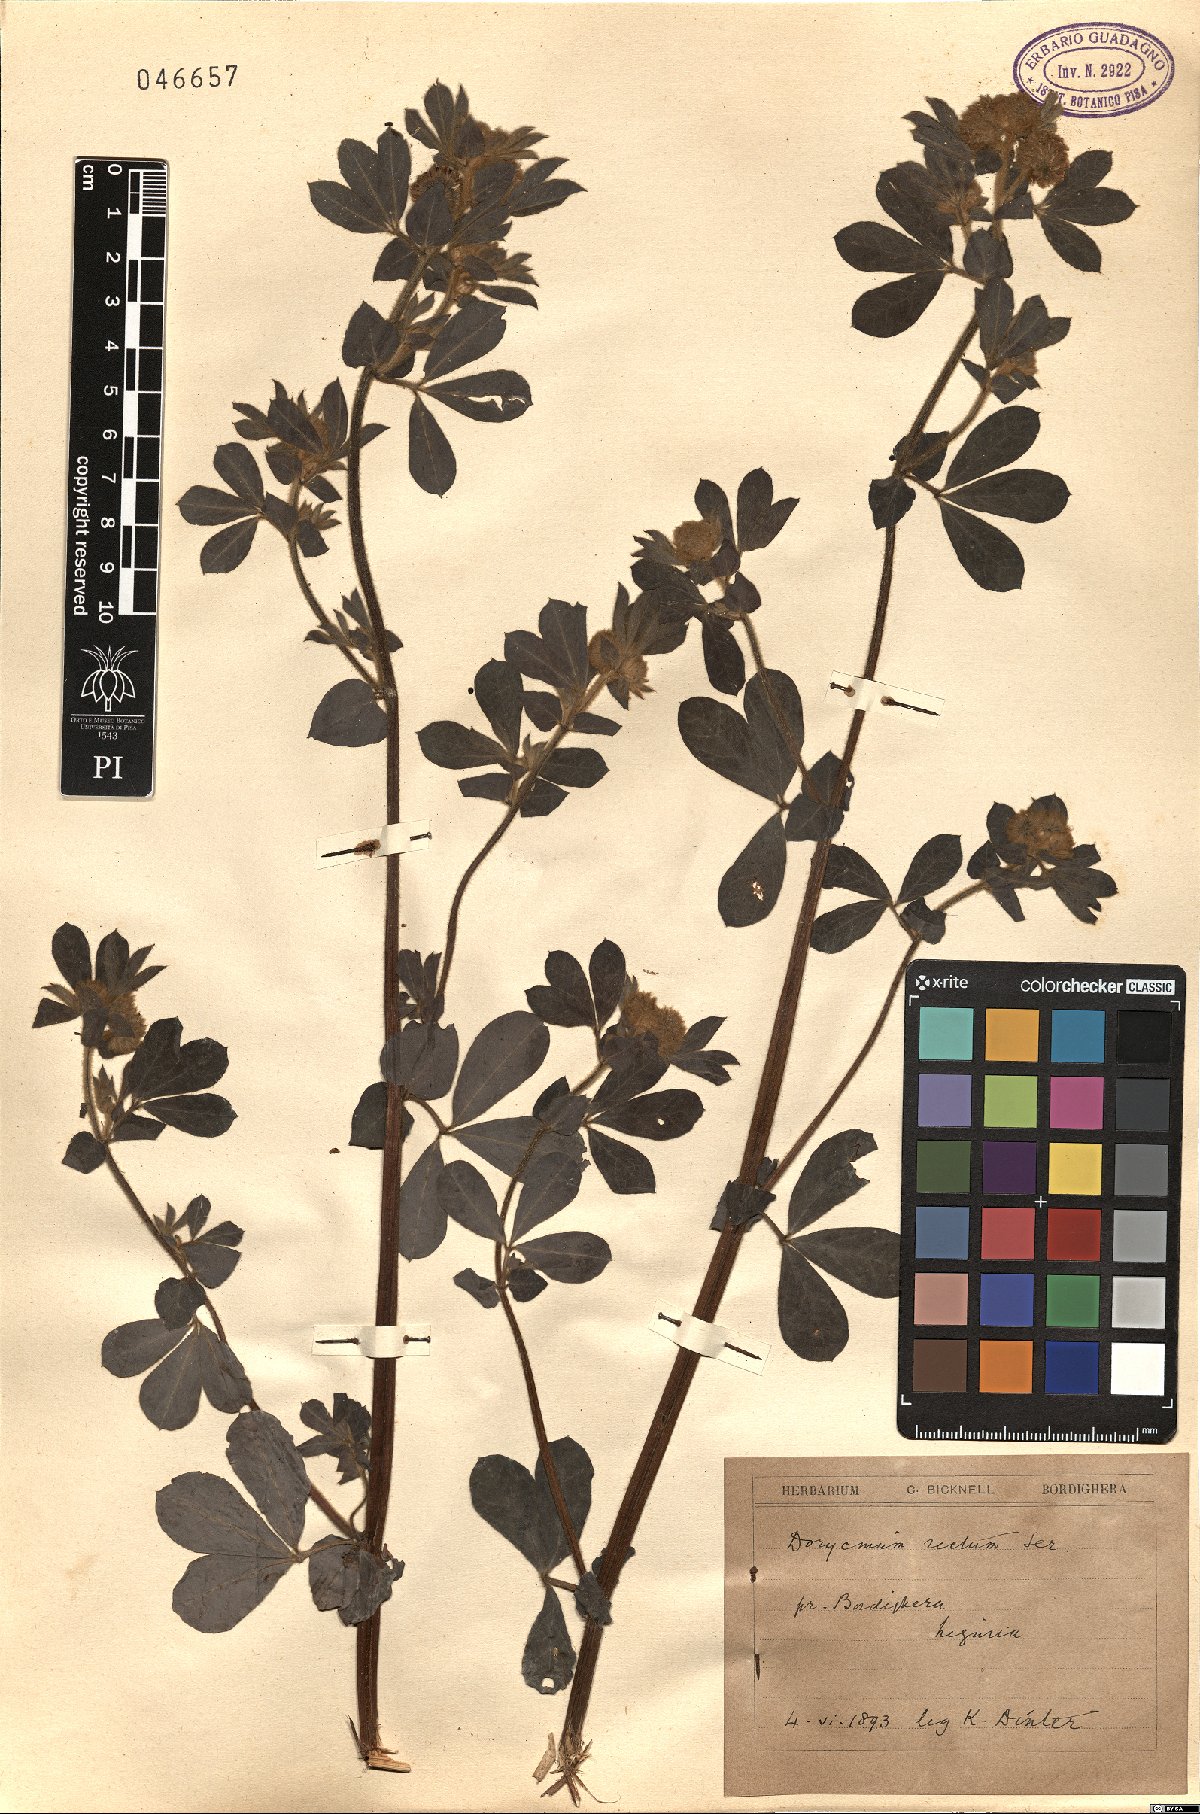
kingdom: Plantae
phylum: Tracheophyta
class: Magnoliopsida
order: Fabales
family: Fabaceae
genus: Lotus
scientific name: Lotus rectus
